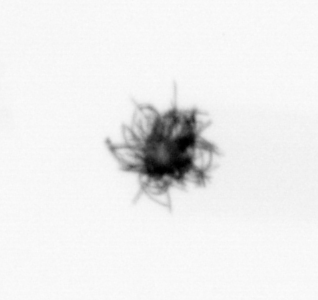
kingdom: Bacteria
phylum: Cyanobacteria
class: Cyanobacteriia
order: Cyanobacteriales
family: Microcoleaceae
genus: Trichodesmium
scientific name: Trichodesmium
